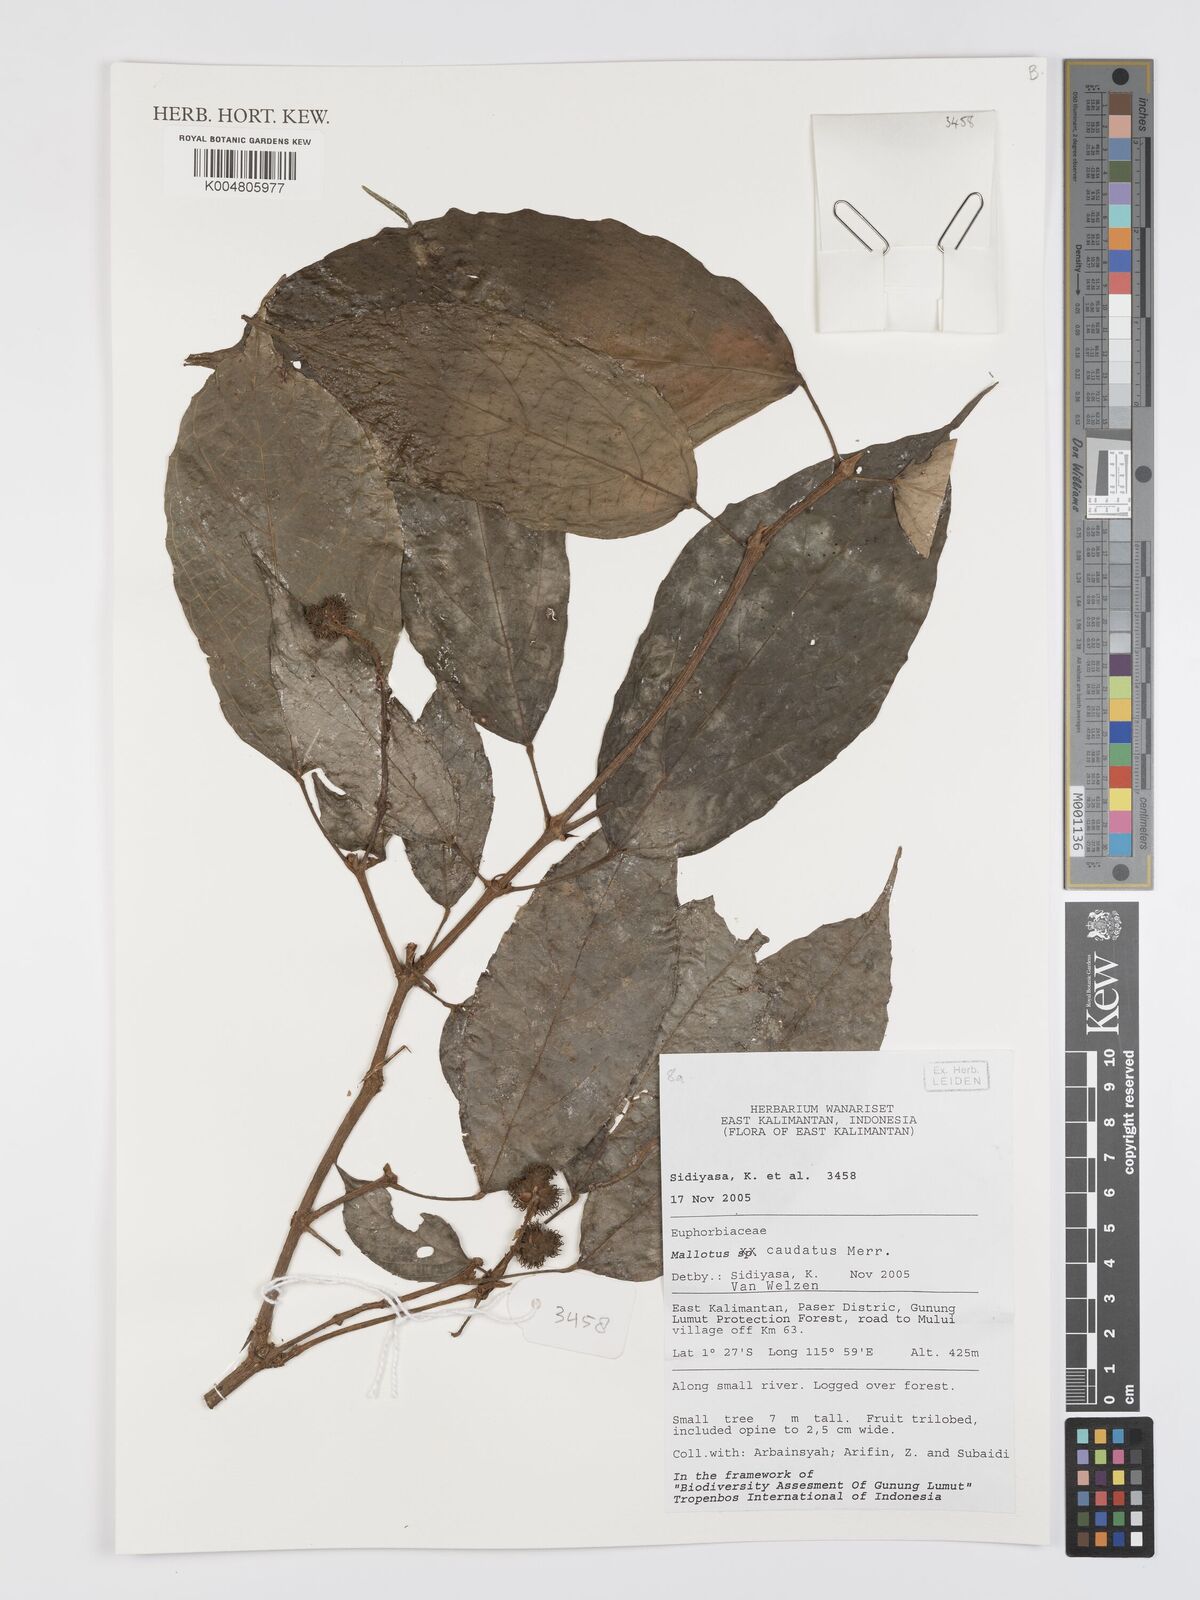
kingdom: Plantae
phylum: Tracheophyta
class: Magnoliopsida
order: Malpighiales
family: Euphorbiaceae
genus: Mallotus
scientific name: Mallotus caudatus
